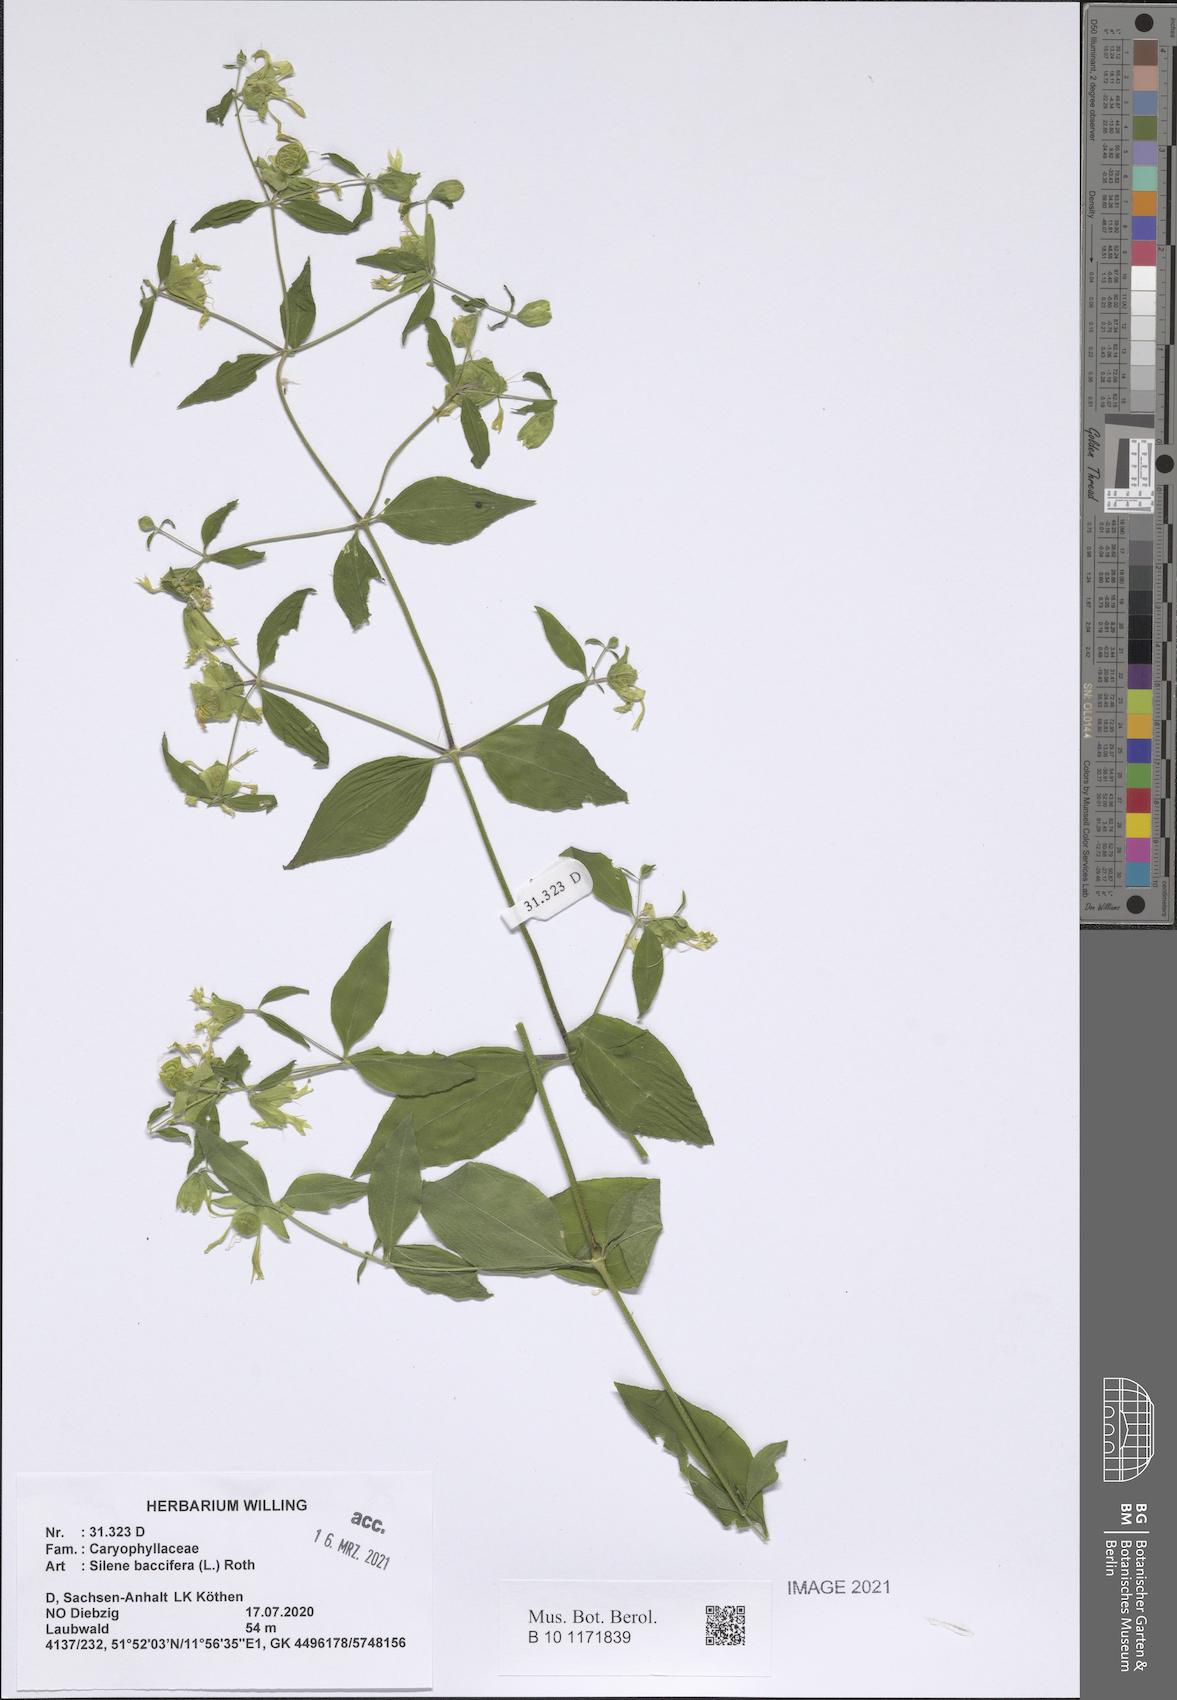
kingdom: Plantae
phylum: Tracheophyta
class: Magnoliopsida
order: Caryophyllales
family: Caryophyllaceae
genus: Silene
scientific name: Silene baccifera
